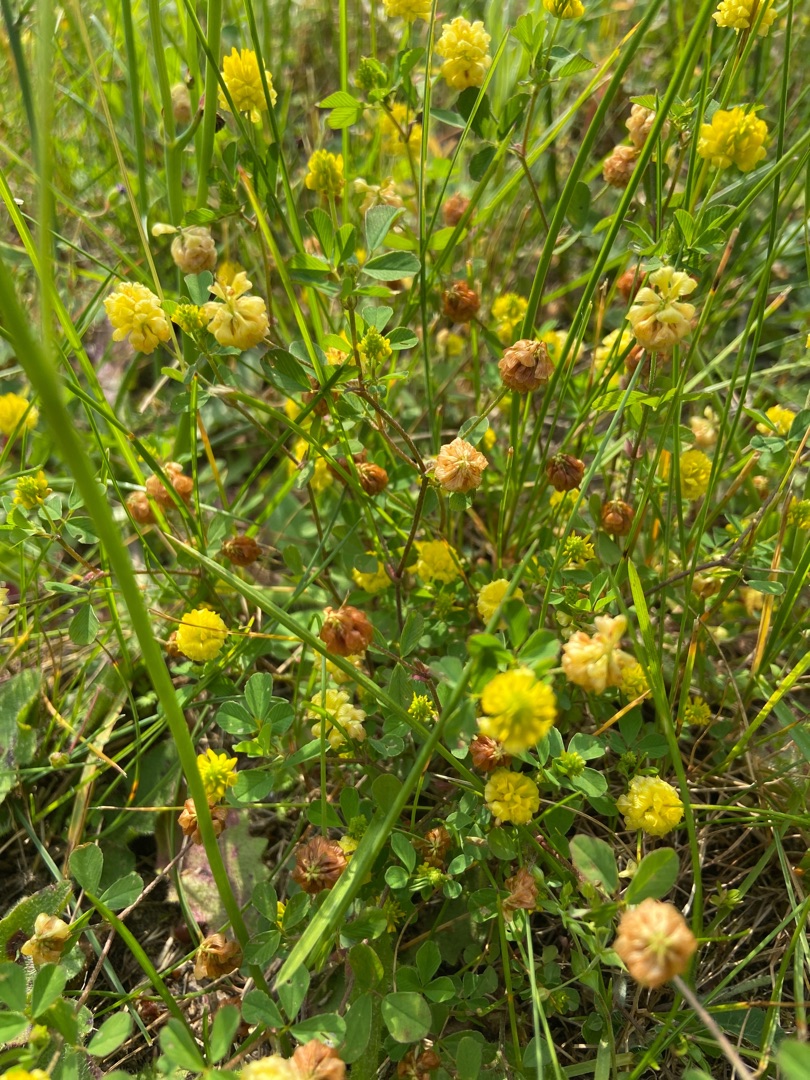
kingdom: Plantae
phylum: Tracheophyta
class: Magnoliopsida
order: Fabales
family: Fabaceae
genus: Trifolium
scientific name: Trifolium campestre
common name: Gul kløver
